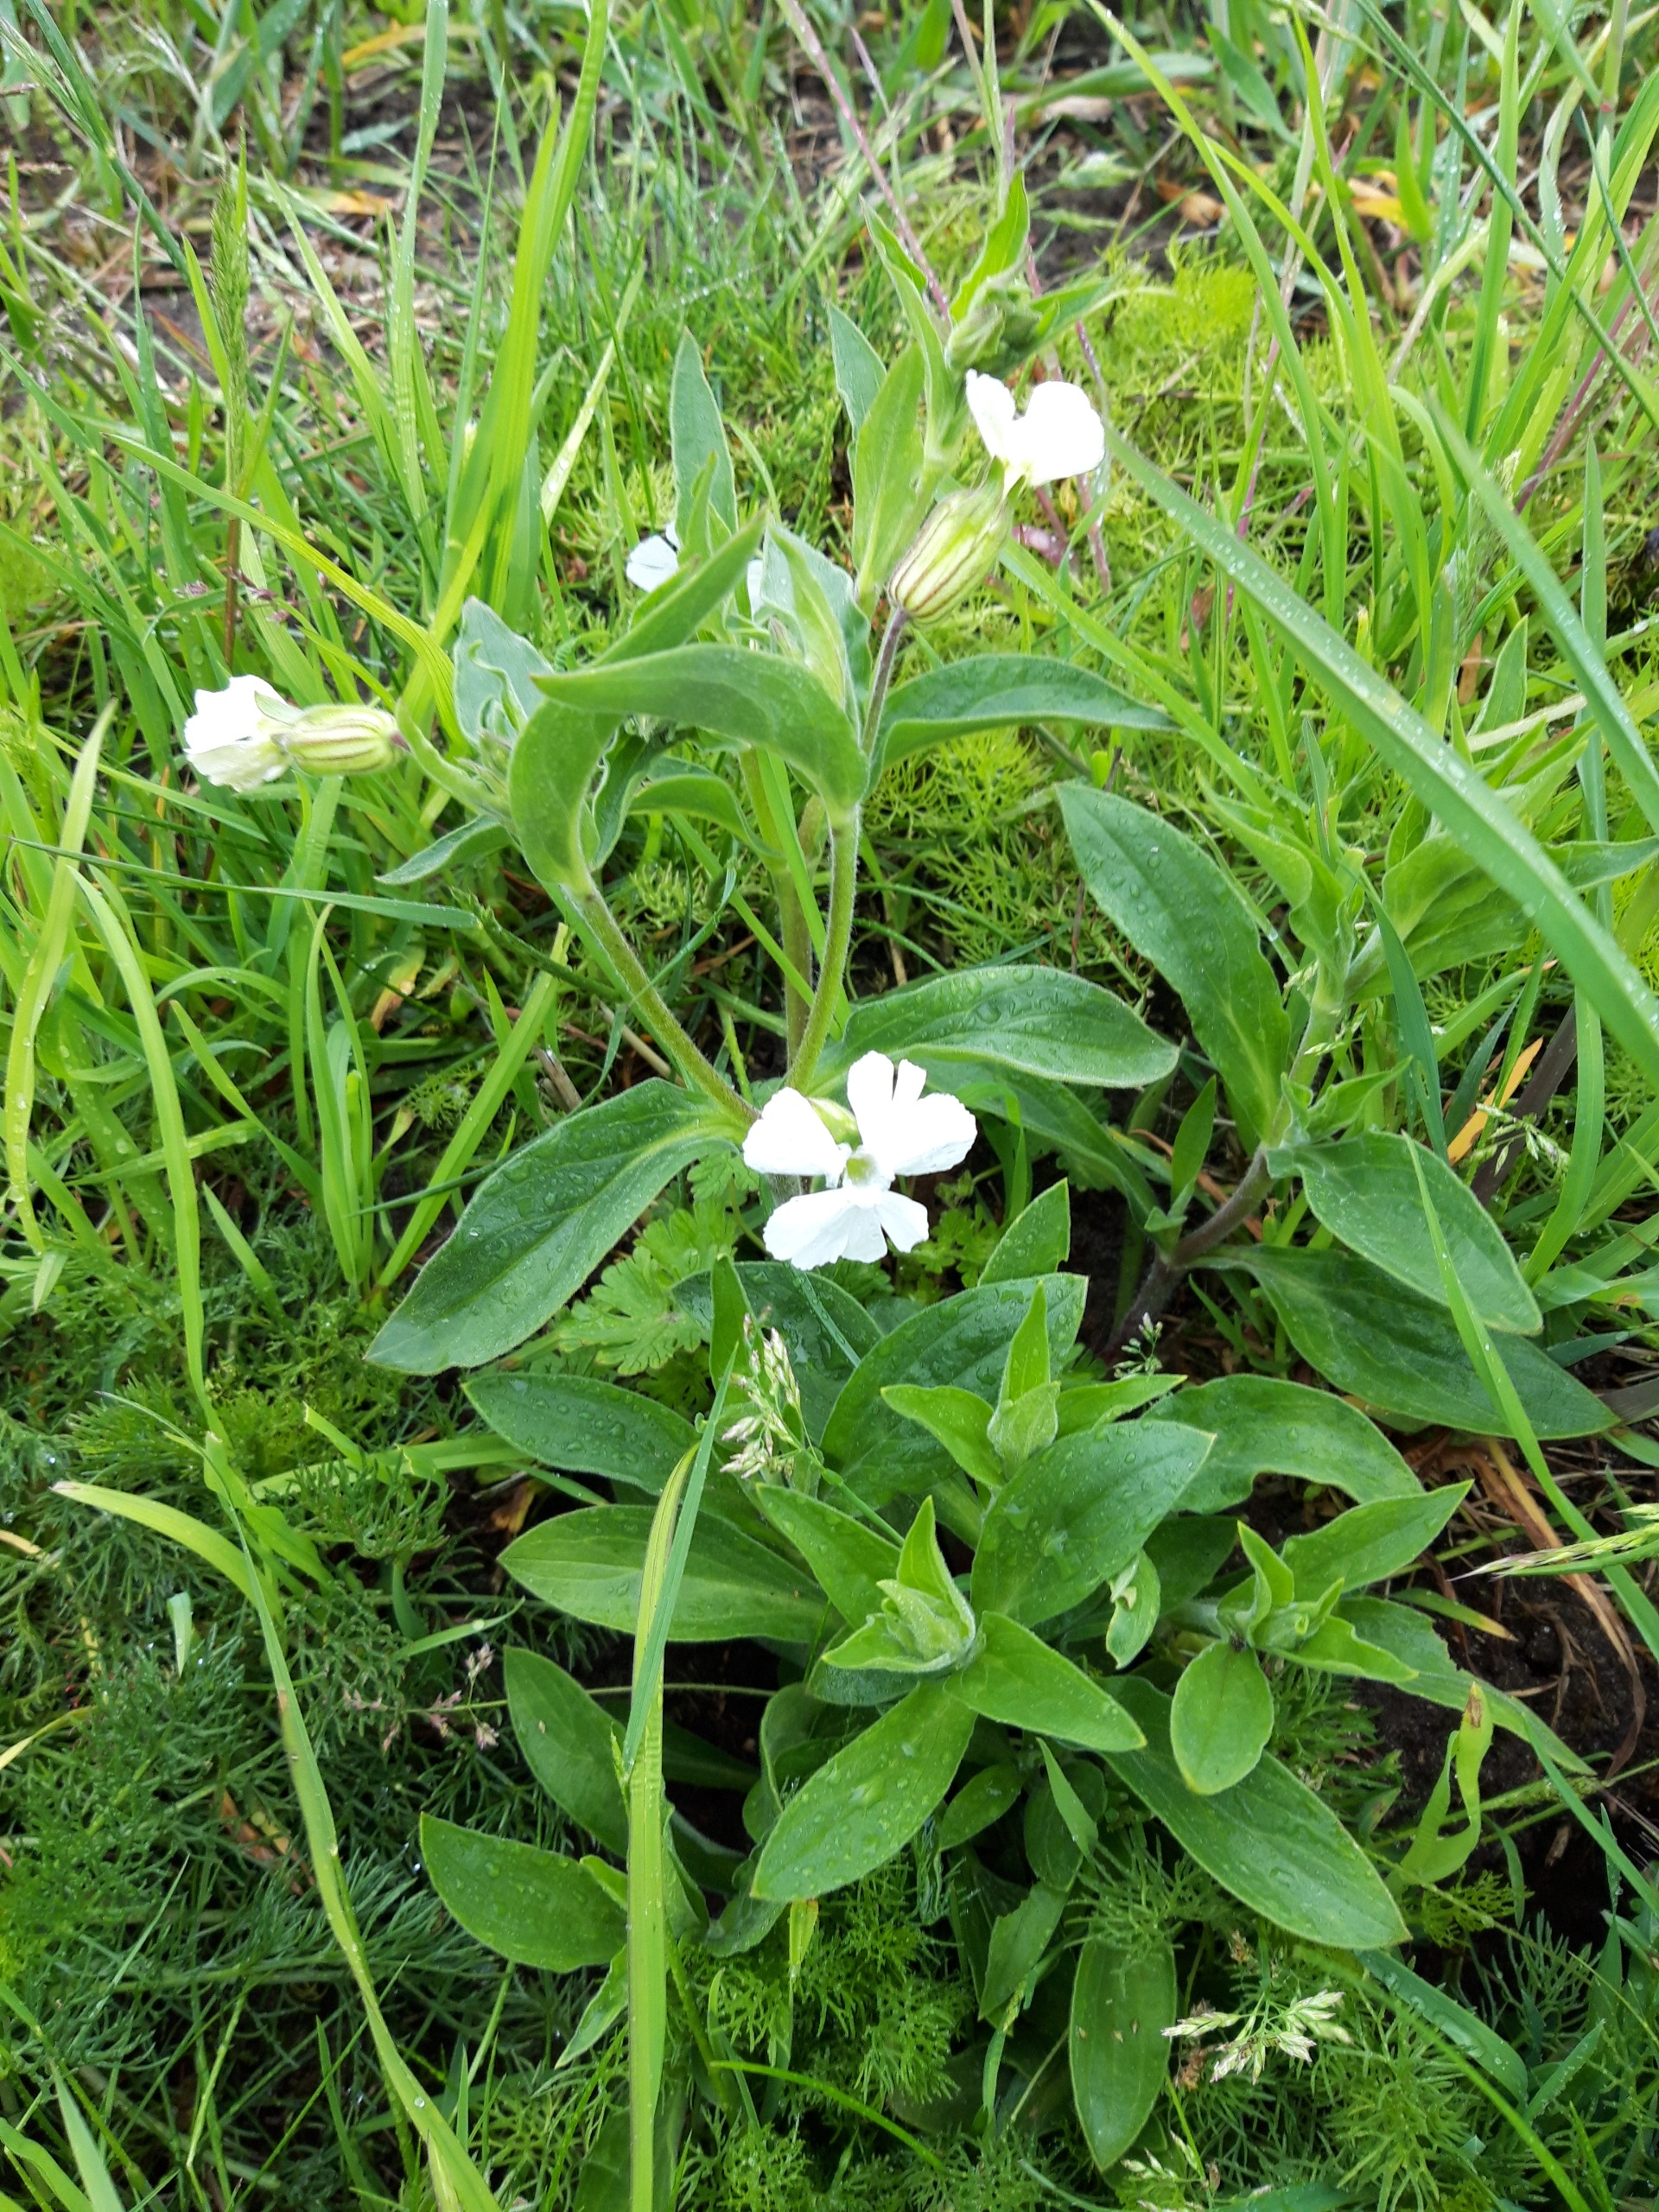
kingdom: Plantae
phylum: Tracheophyta
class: Magnoliopsida
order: Caryophyllales
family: Caryophyllaceae
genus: Silene
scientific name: Silene latifolia
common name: Aftenpragtstjerne
